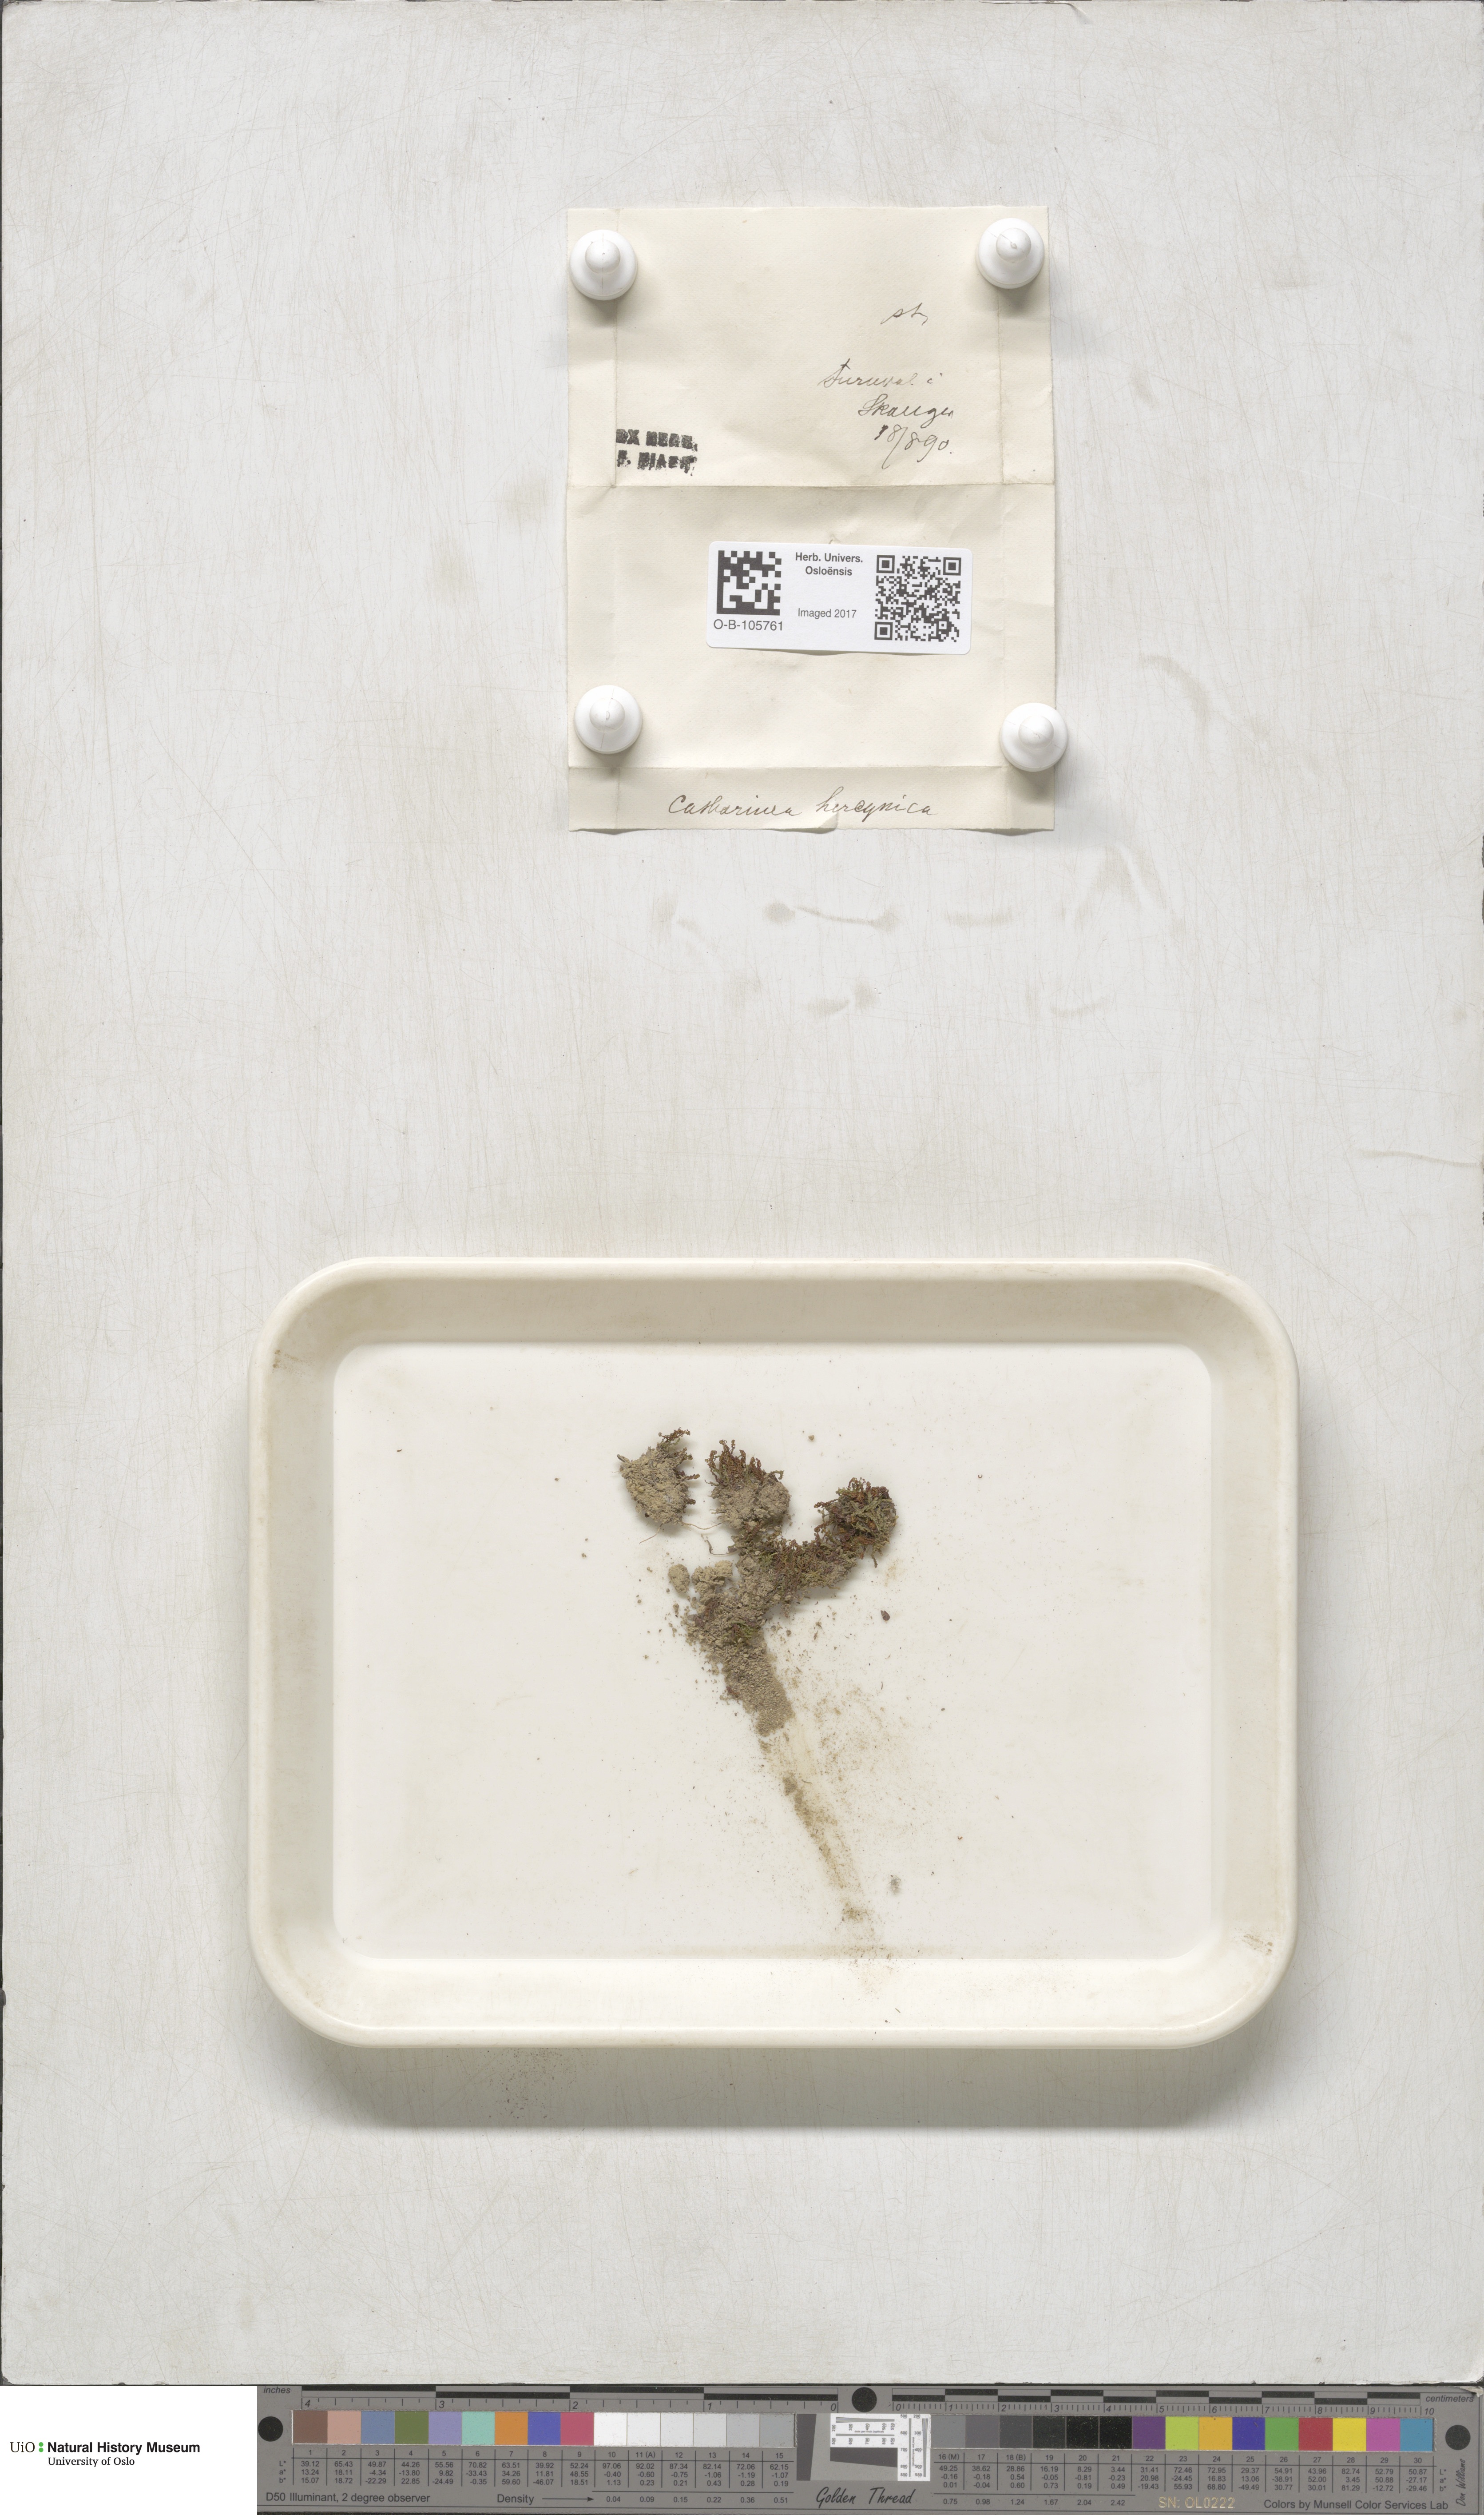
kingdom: Plantae
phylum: Bryophyta
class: Polytrichopsida
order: Polytrichales
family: Polytrichaceae
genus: Oligotrichum
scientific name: Oligotrichum hercynicum
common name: Hercynian hair moss
